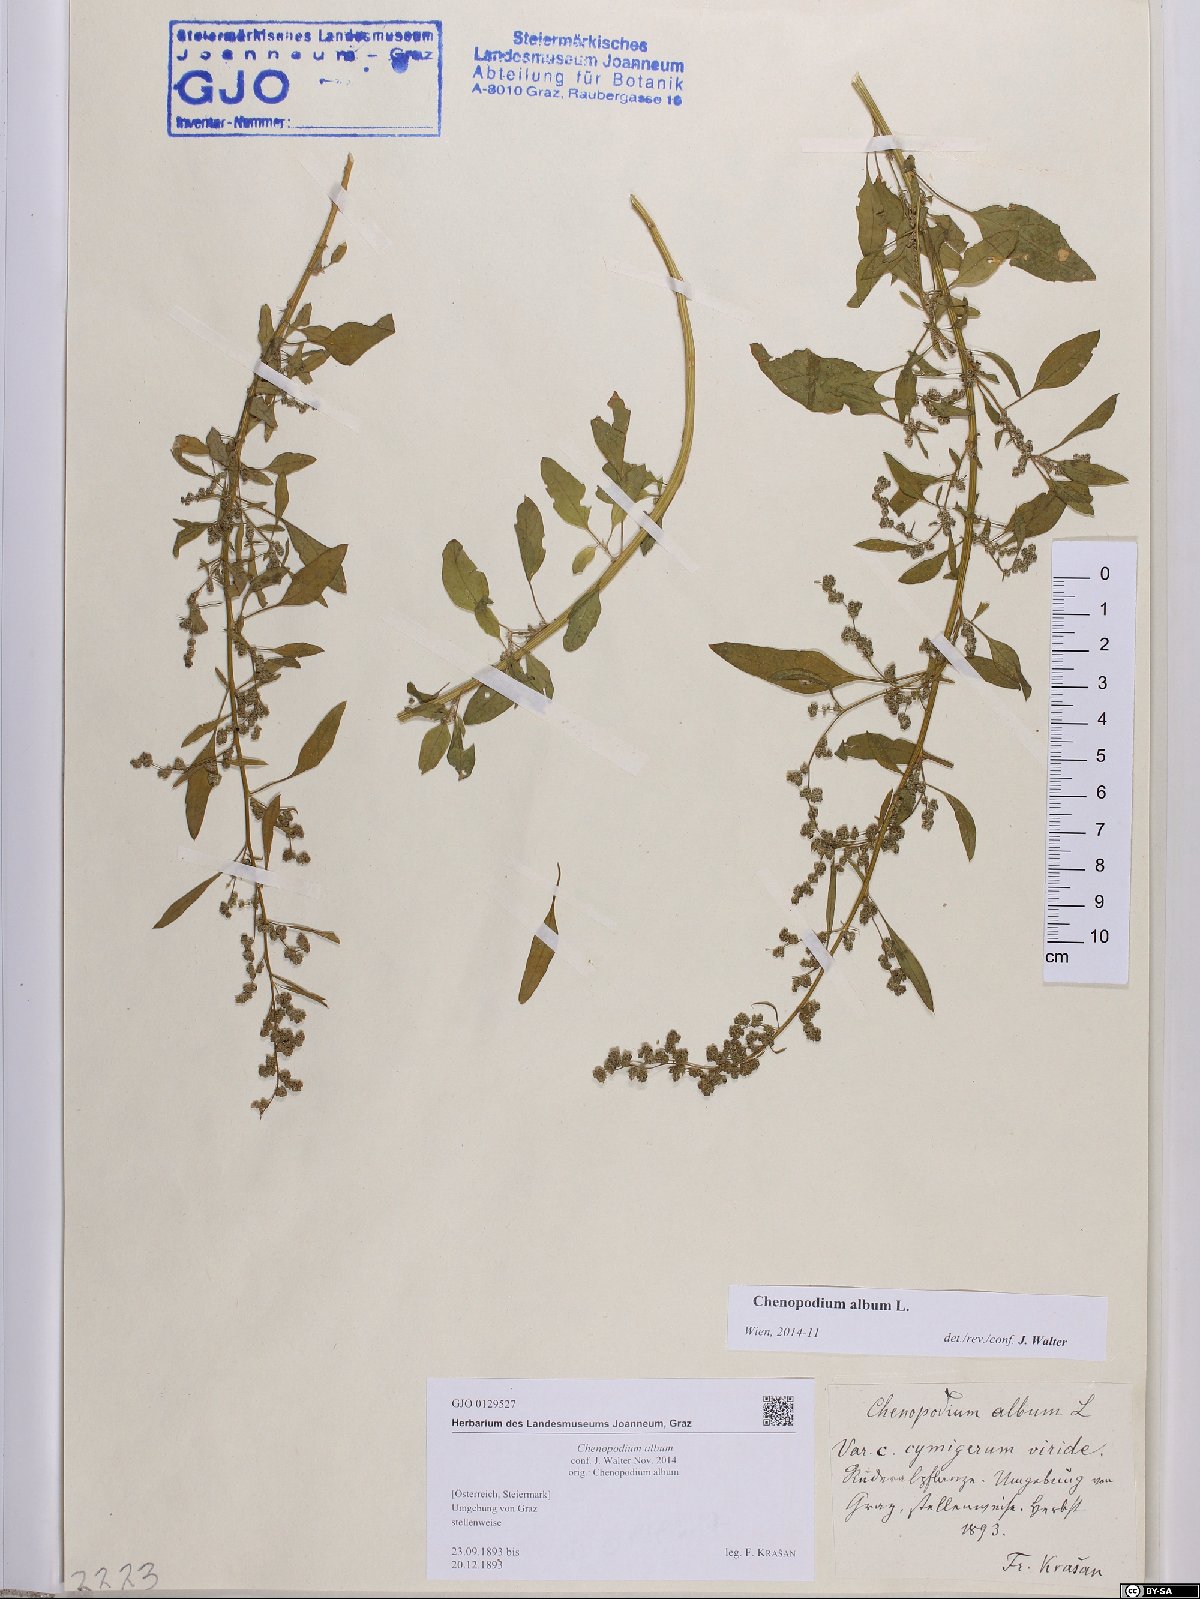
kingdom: Plantae
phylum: Tracheophyta
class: Magnoliopsida
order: Caryophyllales
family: Amaranthaceae
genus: Chenopodium
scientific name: Chenopodium album
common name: Fat-hen
